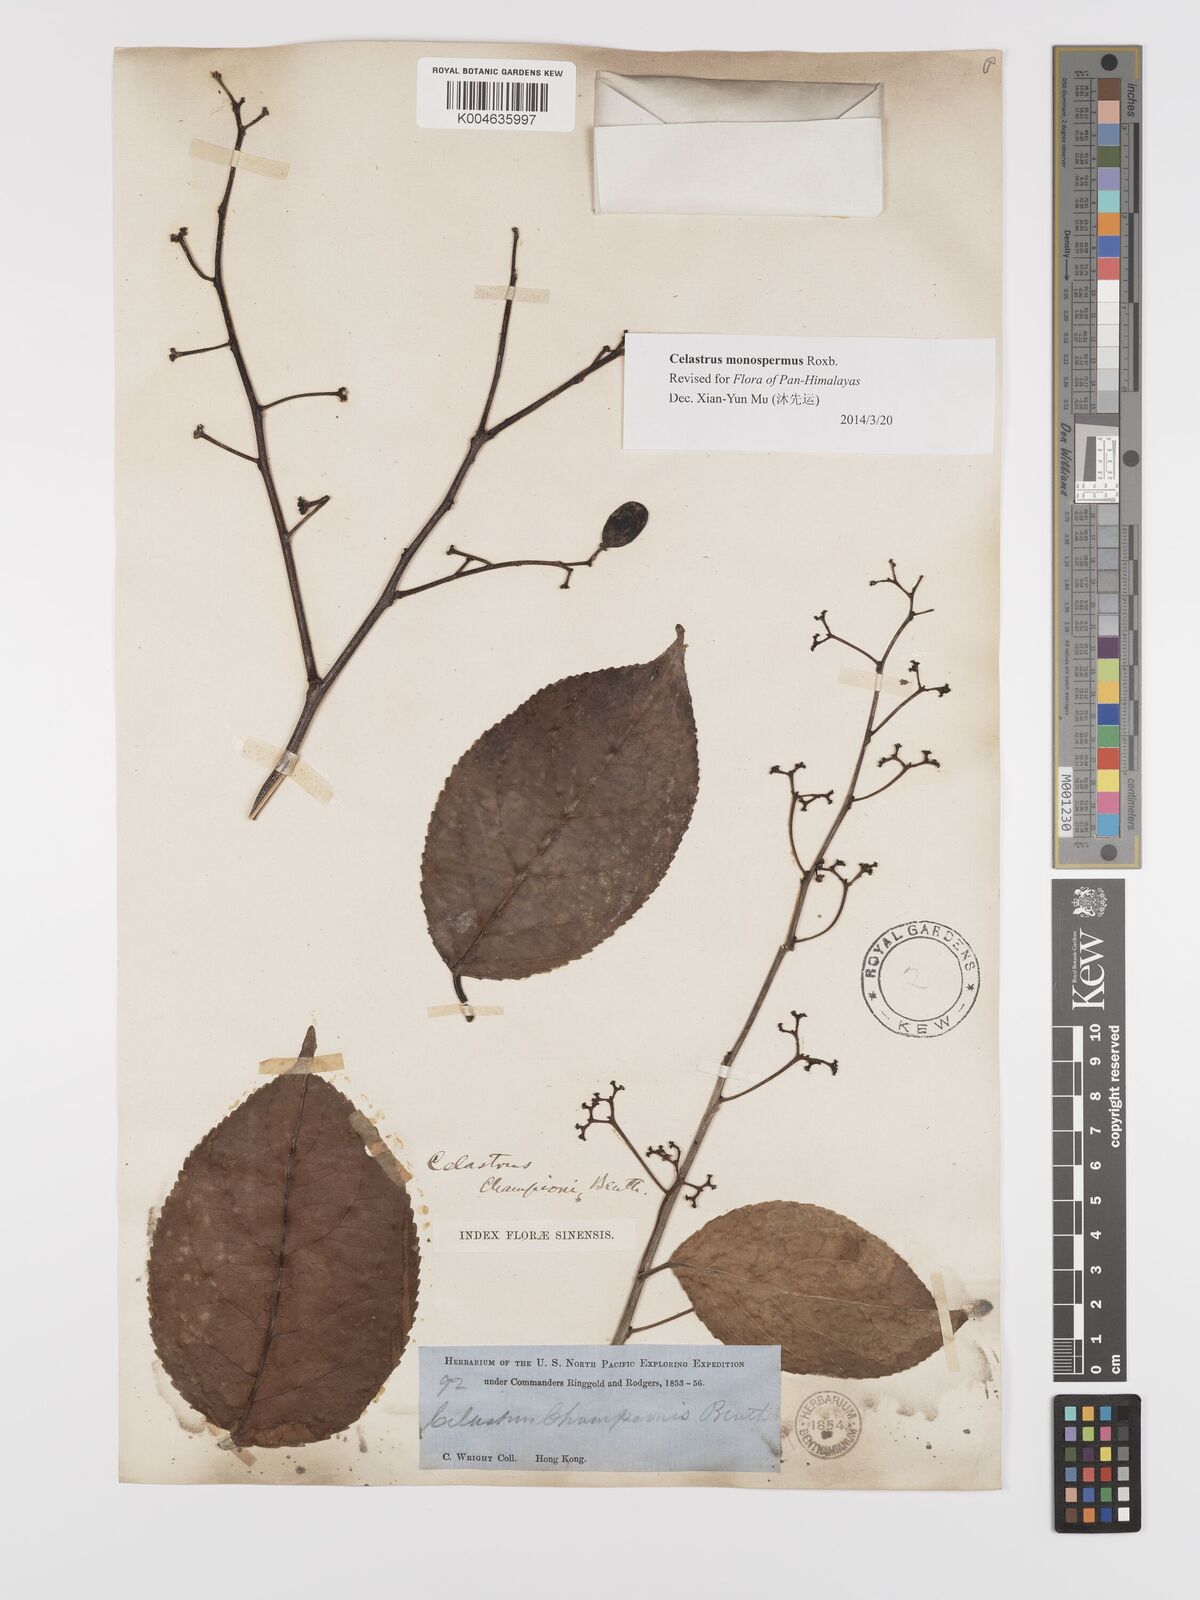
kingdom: Plantae
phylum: Tracheophyta
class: Magnoliopsida
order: Celastrales
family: Celastraceae
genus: Celastrus
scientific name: Celastrus monospermus
